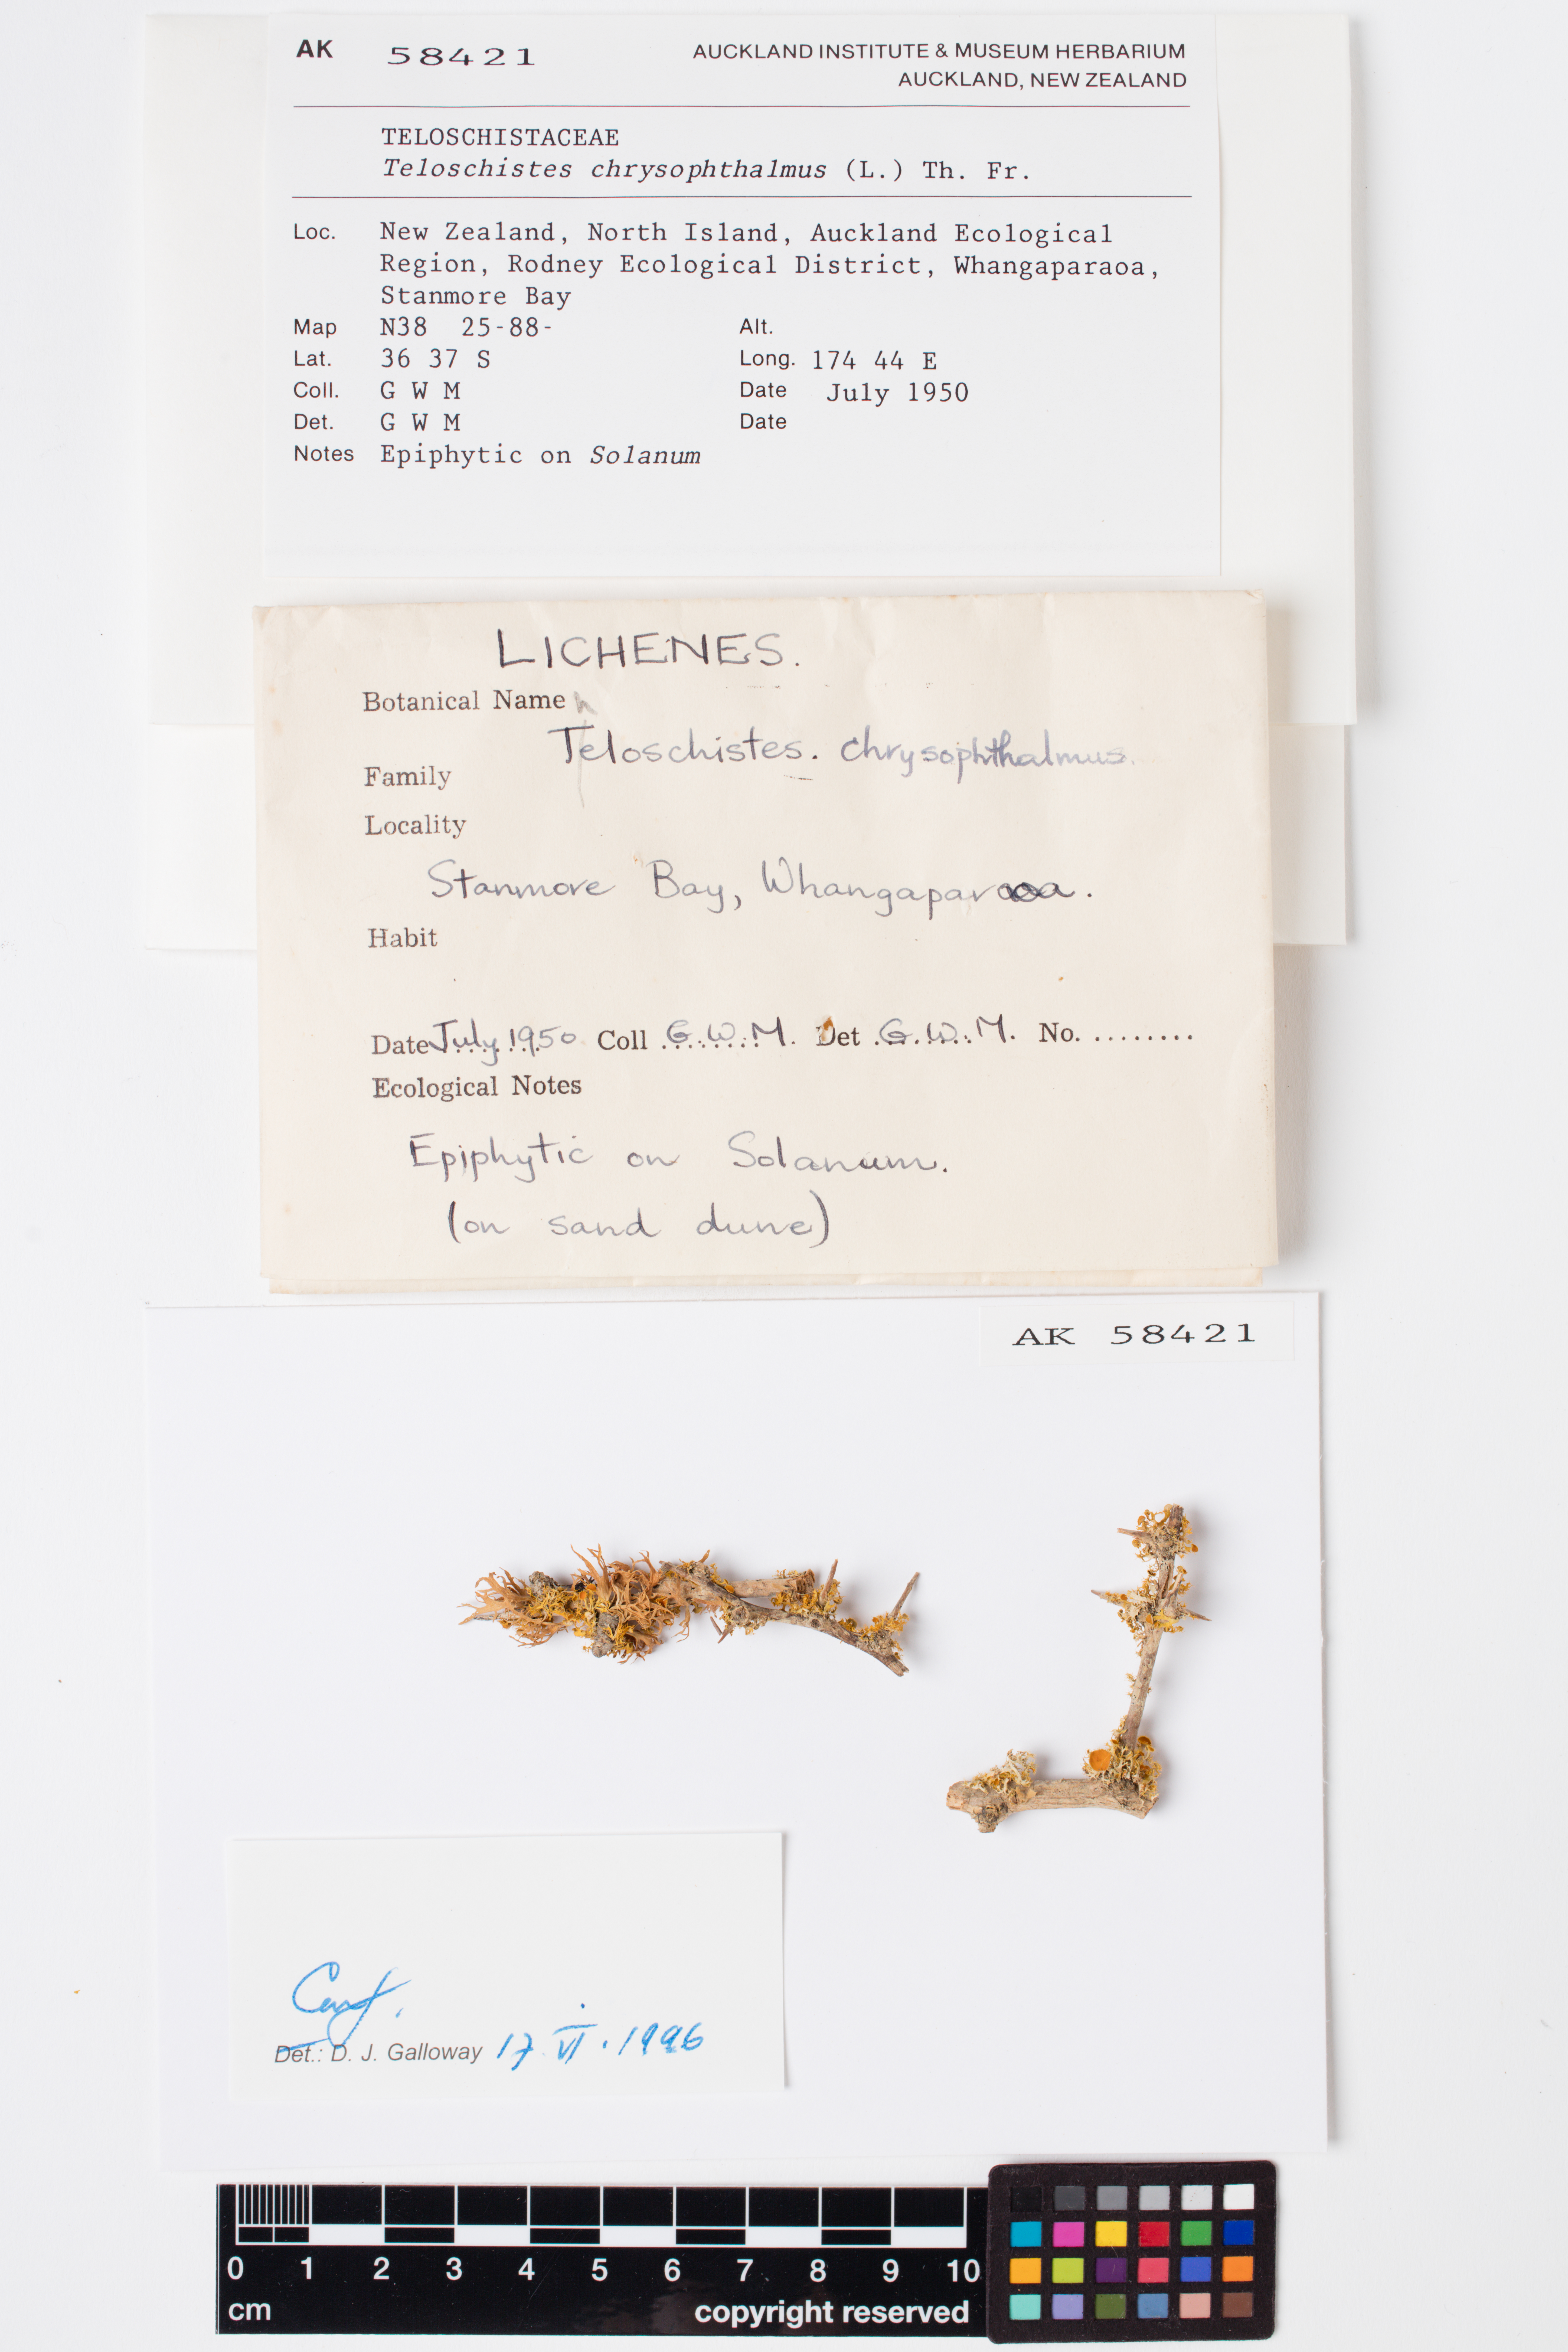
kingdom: Fungi
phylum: Ascomycota
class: Lecanoromycetes
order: Teloschistales
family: Teloschistaceae
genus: Niorma
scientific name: Niorma chrysophthalma
